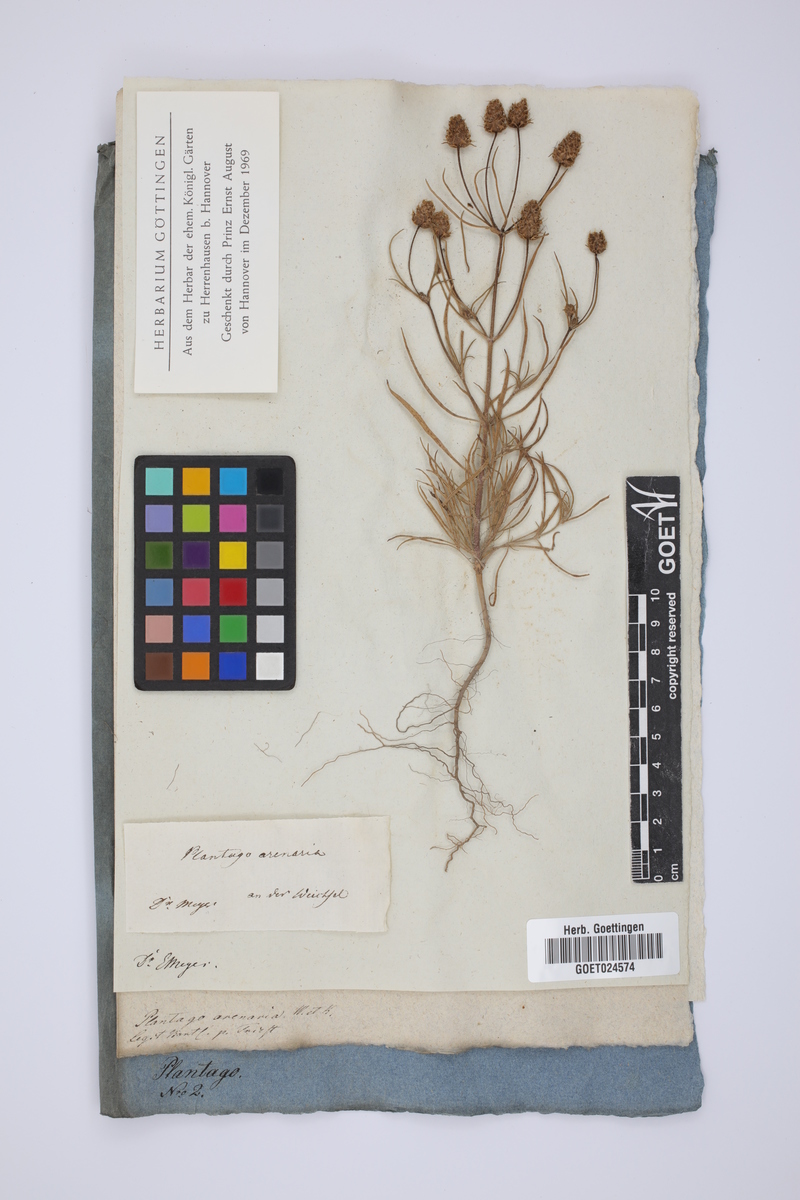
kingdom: Plantae
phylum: Tracheophyta
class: Magnoliopsida
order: Lamiales
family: Plantaginaceae
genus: Plantago
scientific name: Plantago arenaria
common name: Branched plantain
